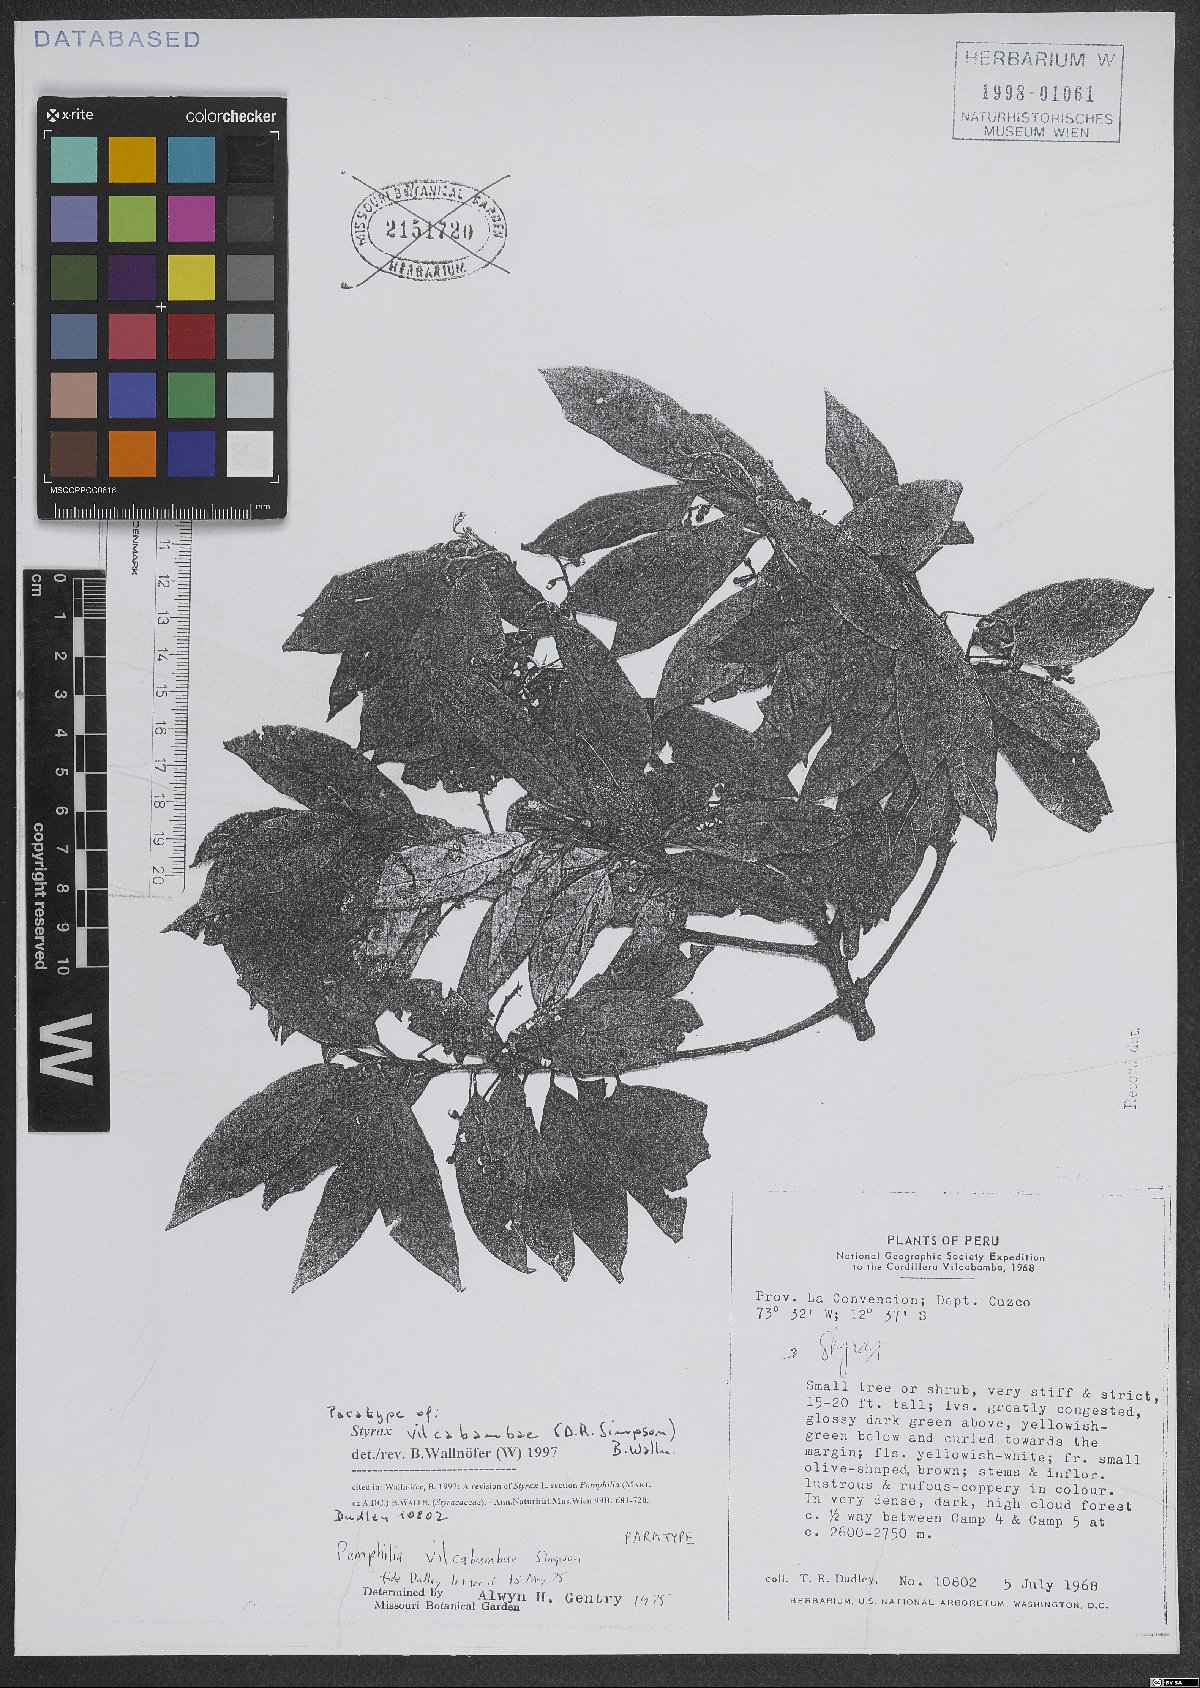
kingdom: Plantae
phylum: Tracheophyta
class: Magnoliopsida
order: Ericales
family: Styracaceae
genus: Styrax
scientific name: Styrax vilcabambae
